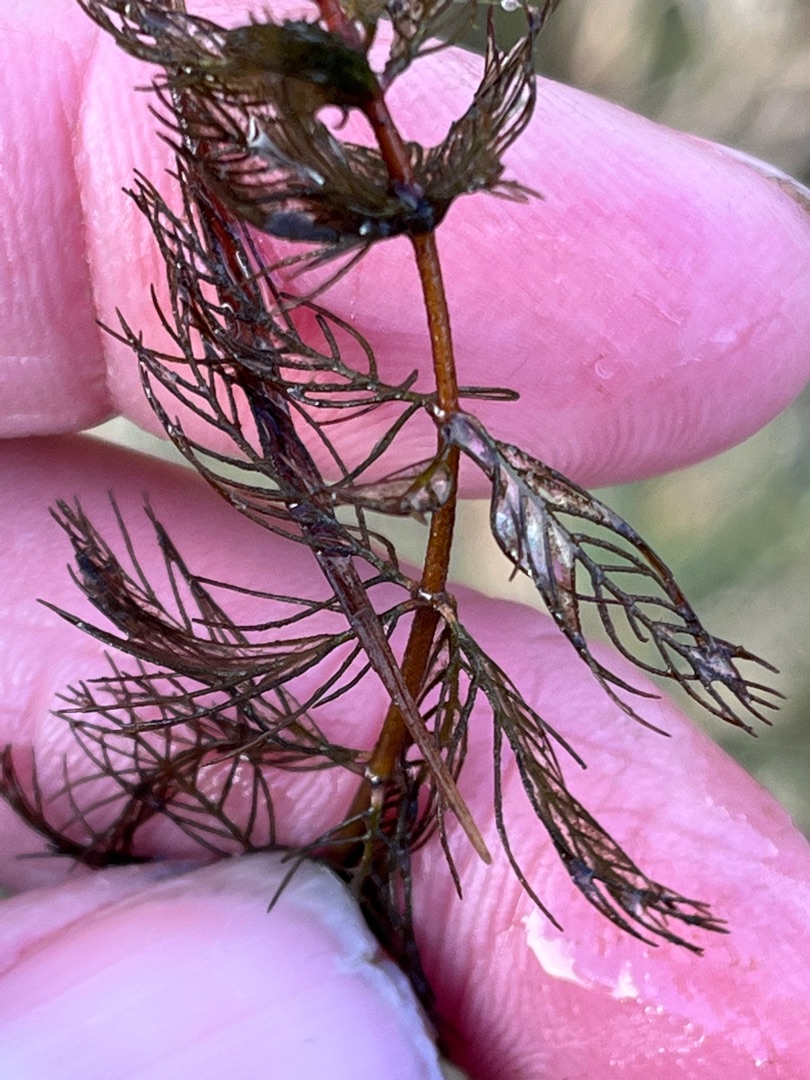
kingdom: Plantae
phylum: Tracheophyta
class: Magnoliopsida
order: Saxifragales
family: Haloragaceae
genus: Myriophyllum
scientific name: Myriophyllum spicatum
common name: Aks-tusindblad
